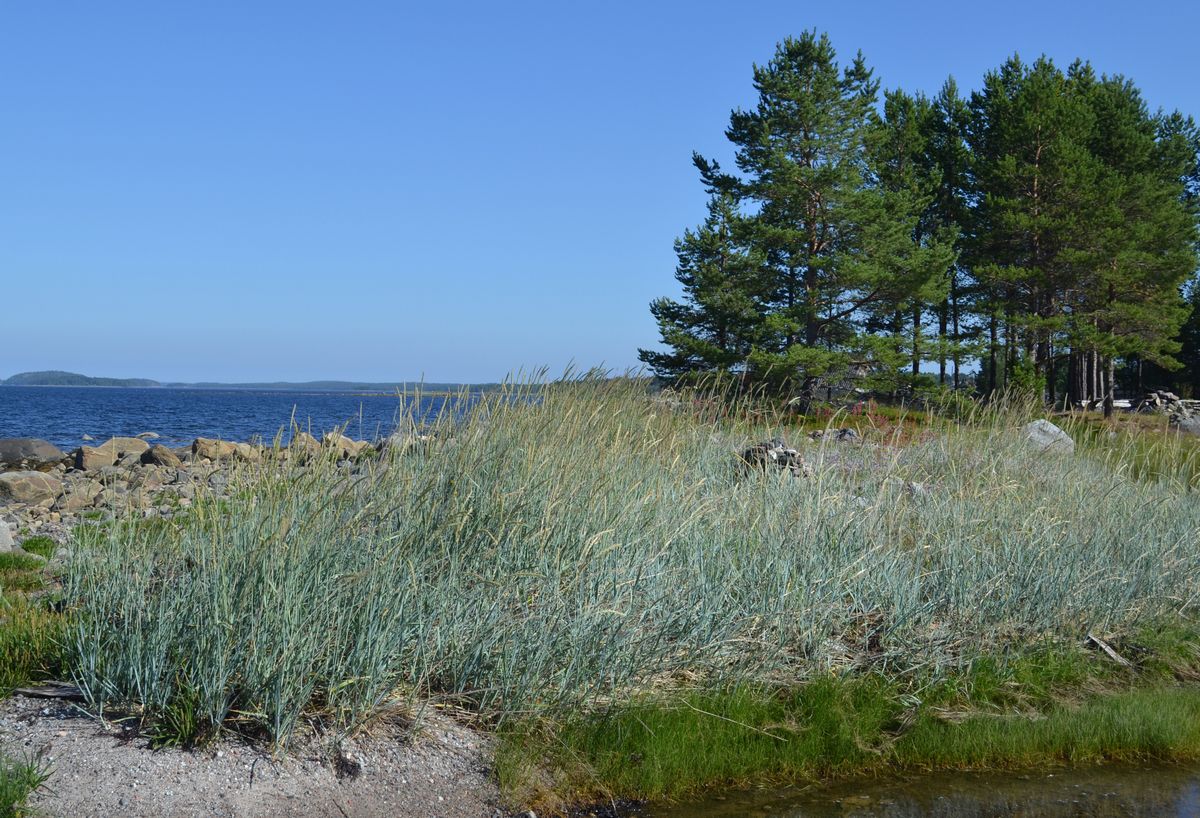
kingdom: Plantae
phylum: Tracheophyta
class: Liliopsida
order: Poales
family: Poaceae
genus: Leymus
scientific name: Leymus arenarius
